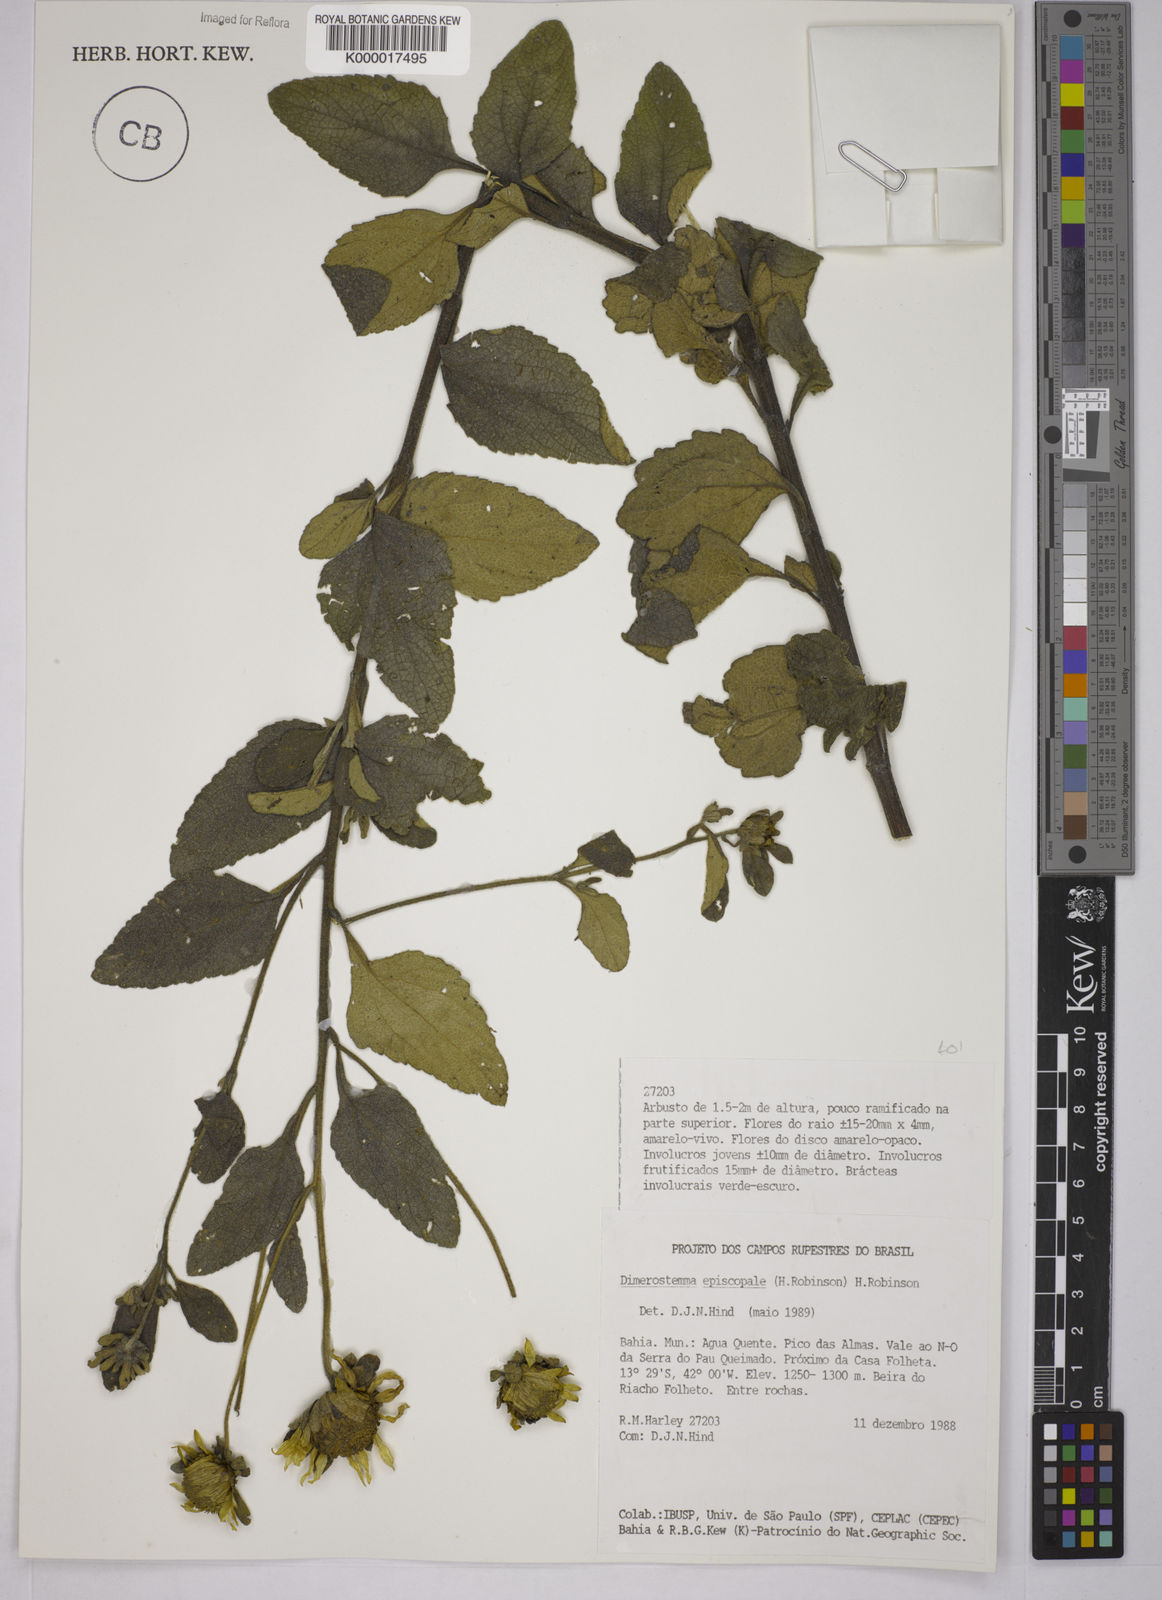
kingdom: Plantae
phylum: Tracheophyta
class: Magnoliopsida
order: Asterales
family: Asteraceae
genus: Dimerostemma
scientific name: Dimerostemma episcopale
